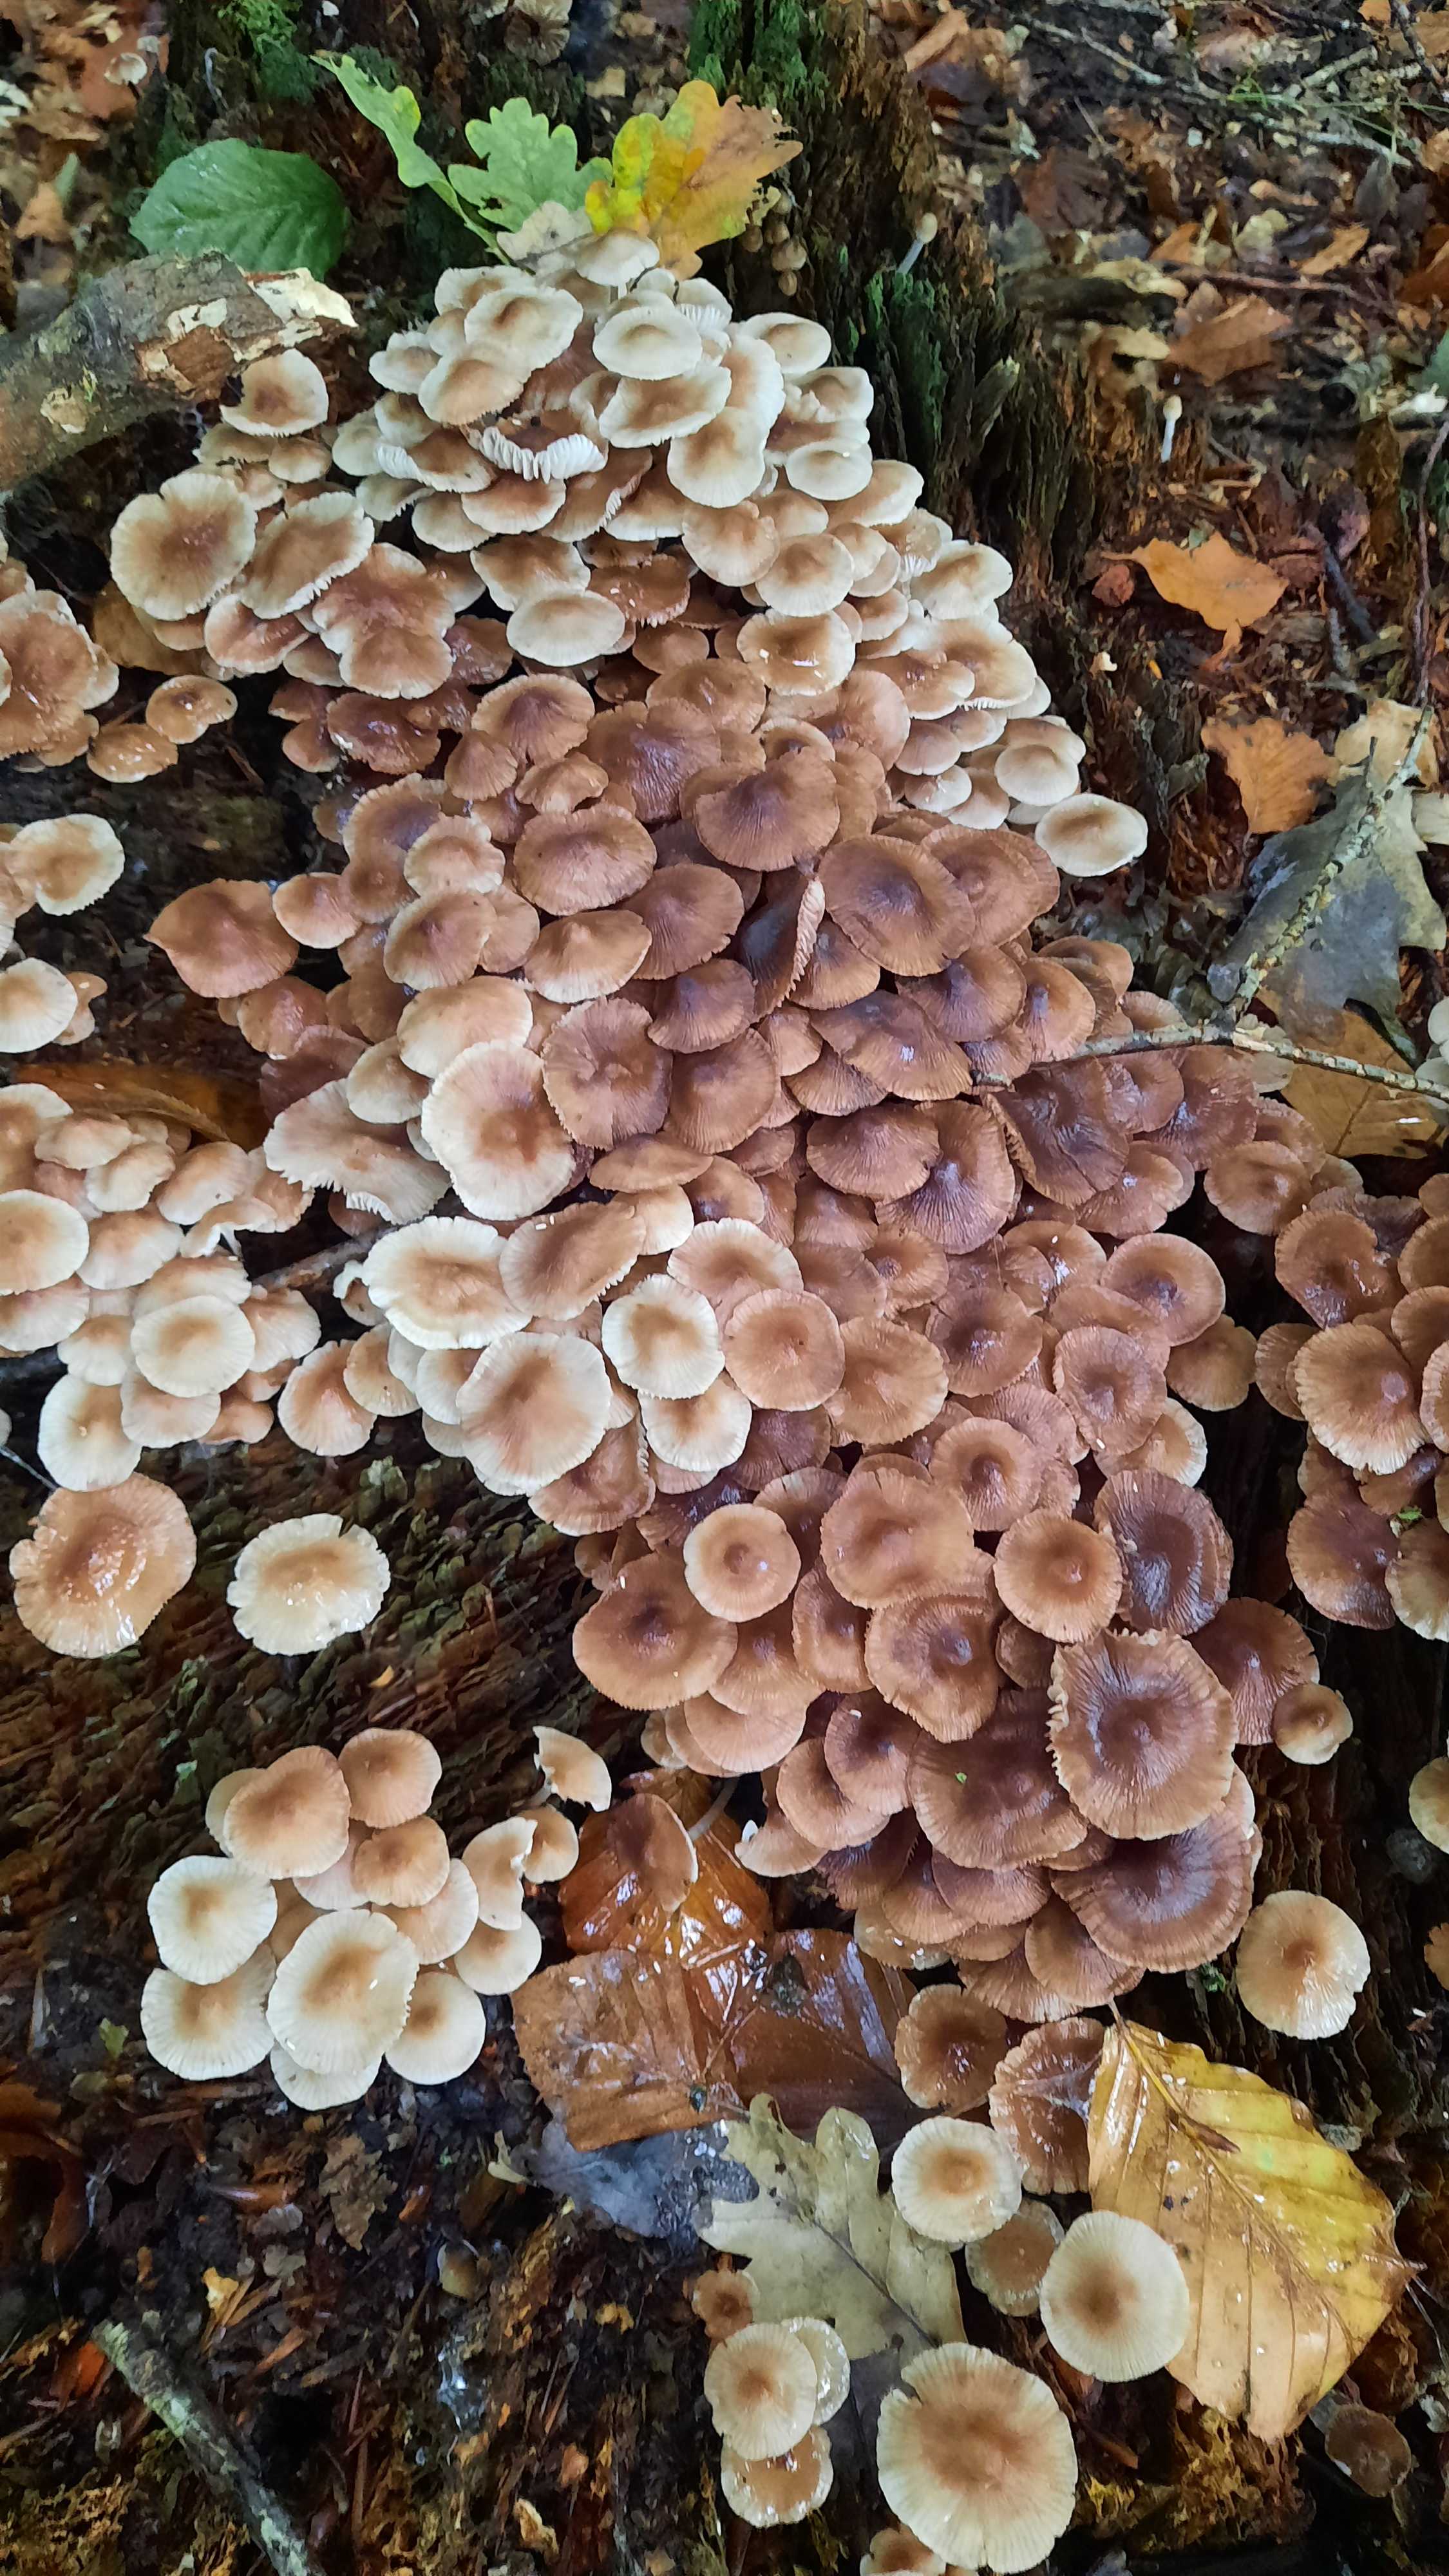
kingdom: Fungi
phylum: Basidiomycota
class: Agaricomycetes
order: Agaricales
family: Mycenaceae
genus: Mycena
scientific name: Mycena
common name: huesvamp
